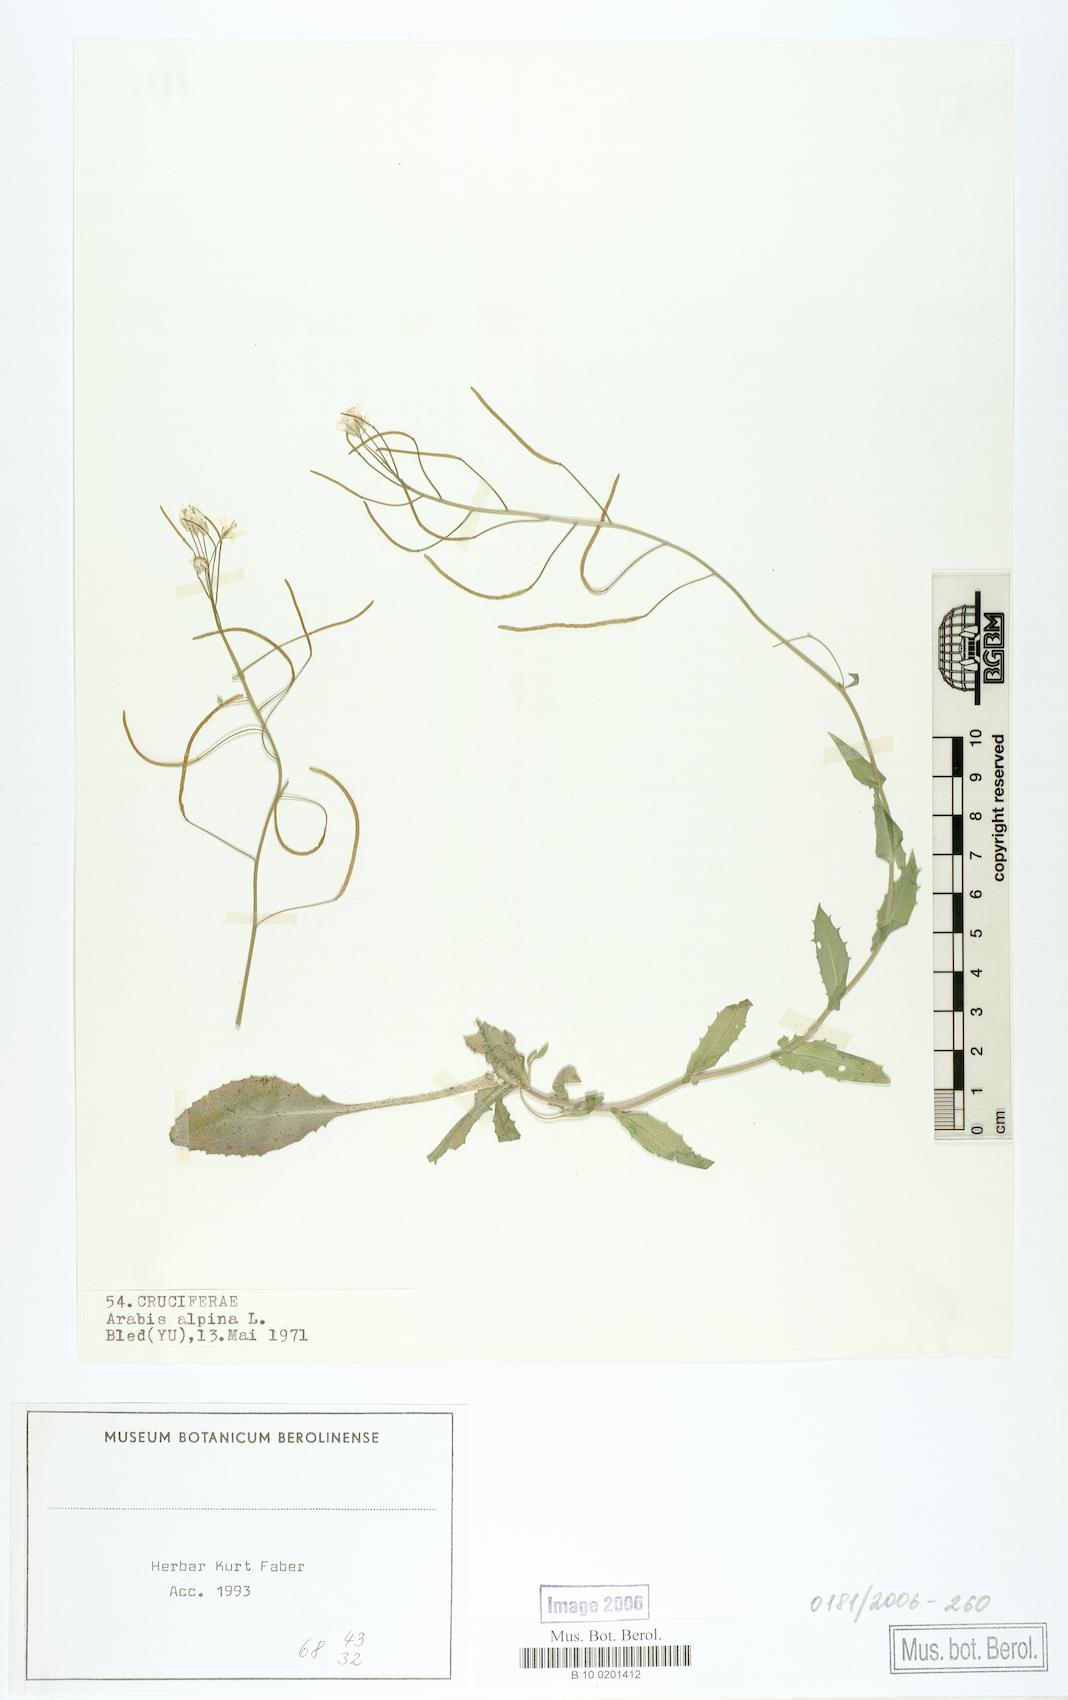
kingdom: Plantae
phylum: Tracheophyta
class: Magnoliopsida
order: Brassicales
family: Brassicaceae
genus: Arabis
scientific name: Arabis alpina
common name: Alpine rock-cress
